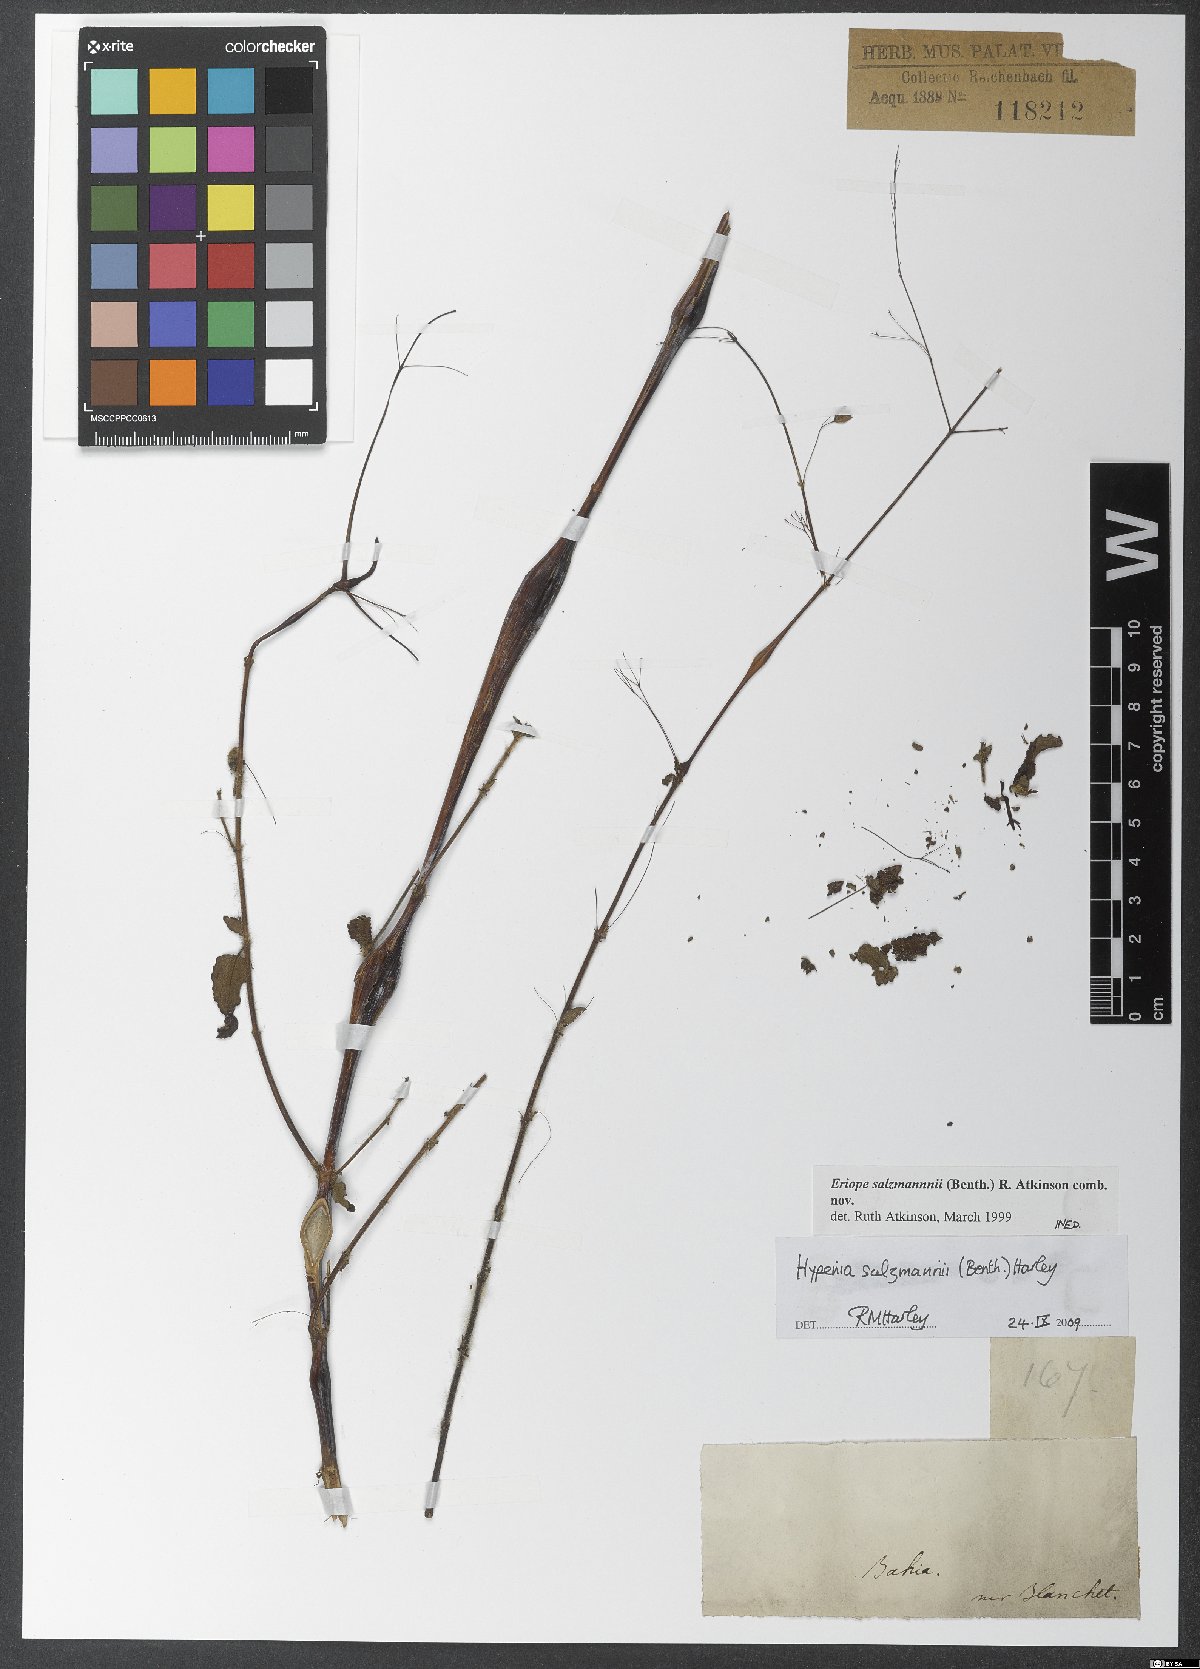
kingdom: Plantae
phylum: Tracheophyta
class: Magnoliopsida
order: Lamiales
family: Lamiaceae
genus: Eriope
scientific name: Eriope
